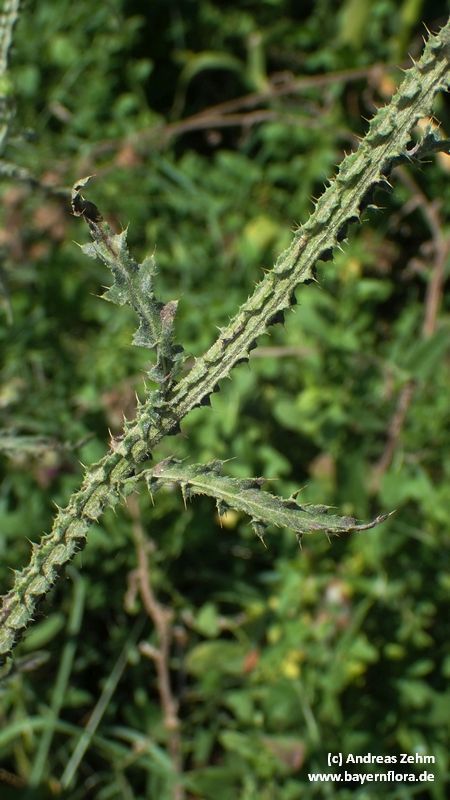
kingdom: Plantae
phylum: Tracheophyta
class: Magnoliopsida
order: Asterales
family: Asteraceae
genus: Carduus
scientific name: Carduus crispus
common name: Welted thistle
